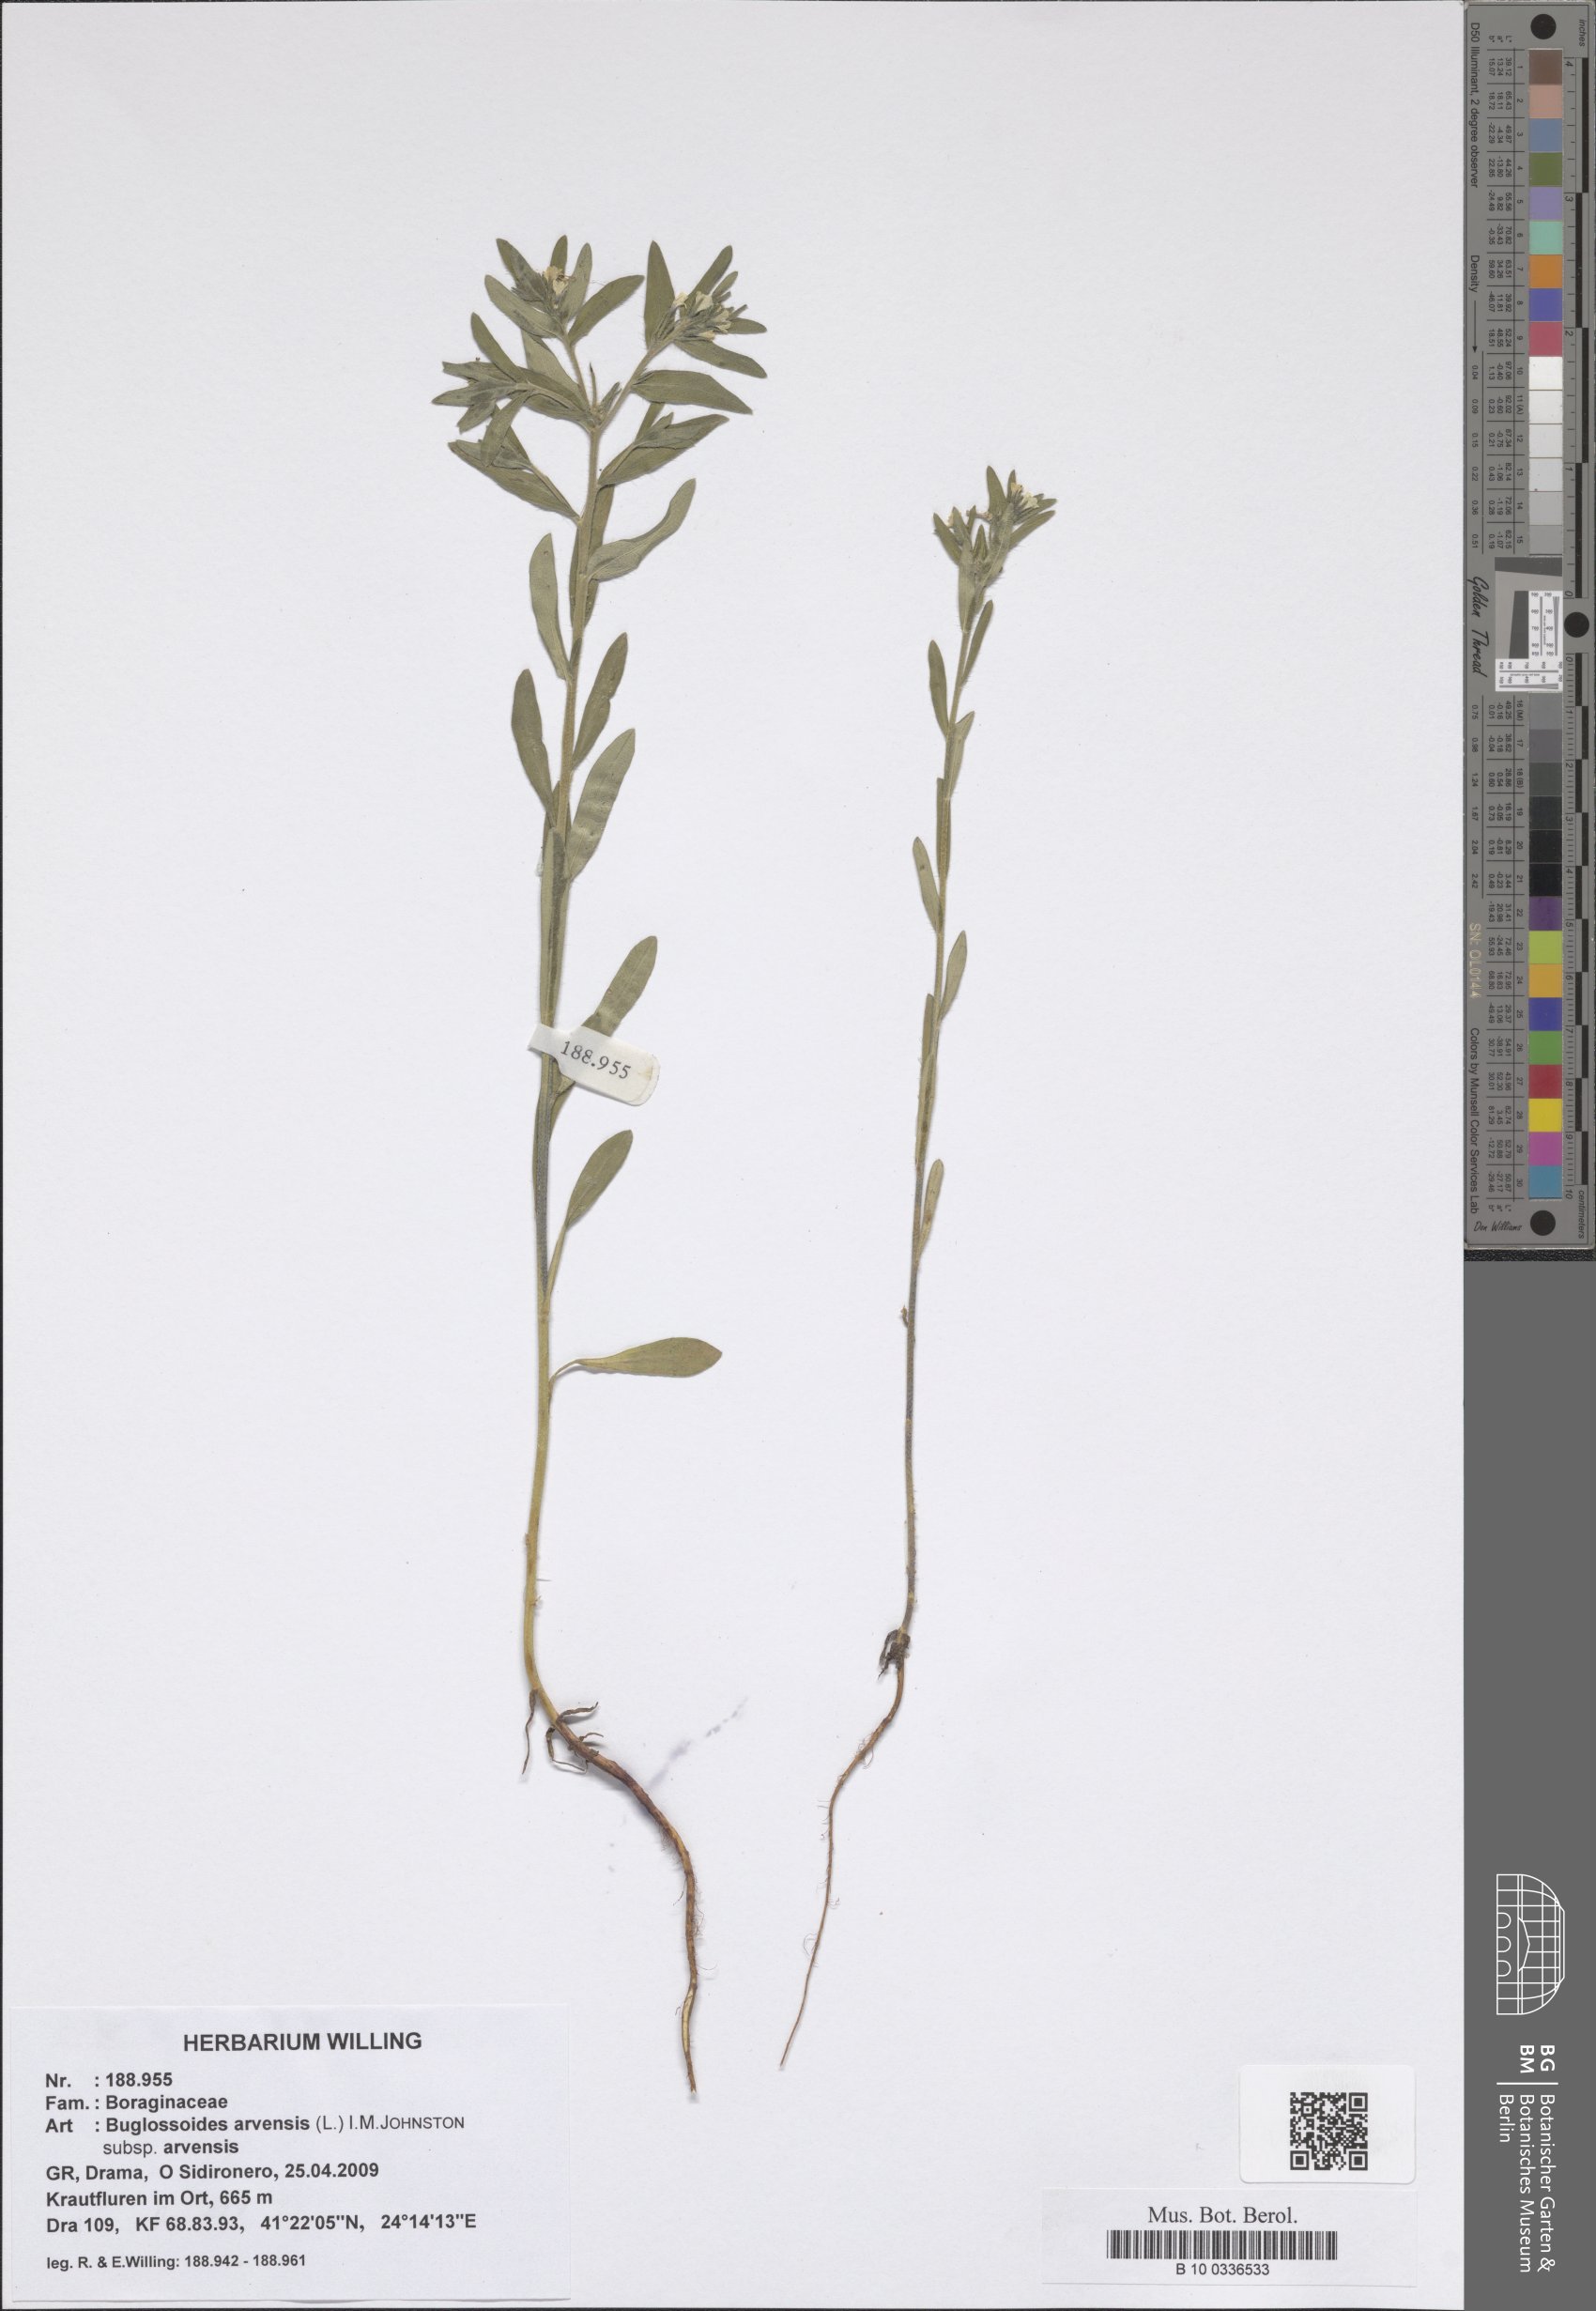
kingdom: Plantae
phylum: Tracheophyta
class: Magnoliopsida
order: Boraginales
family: Boraginaceae
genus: Buglossoides
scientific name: Buglossoides arvensis
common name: Corn gromwell
